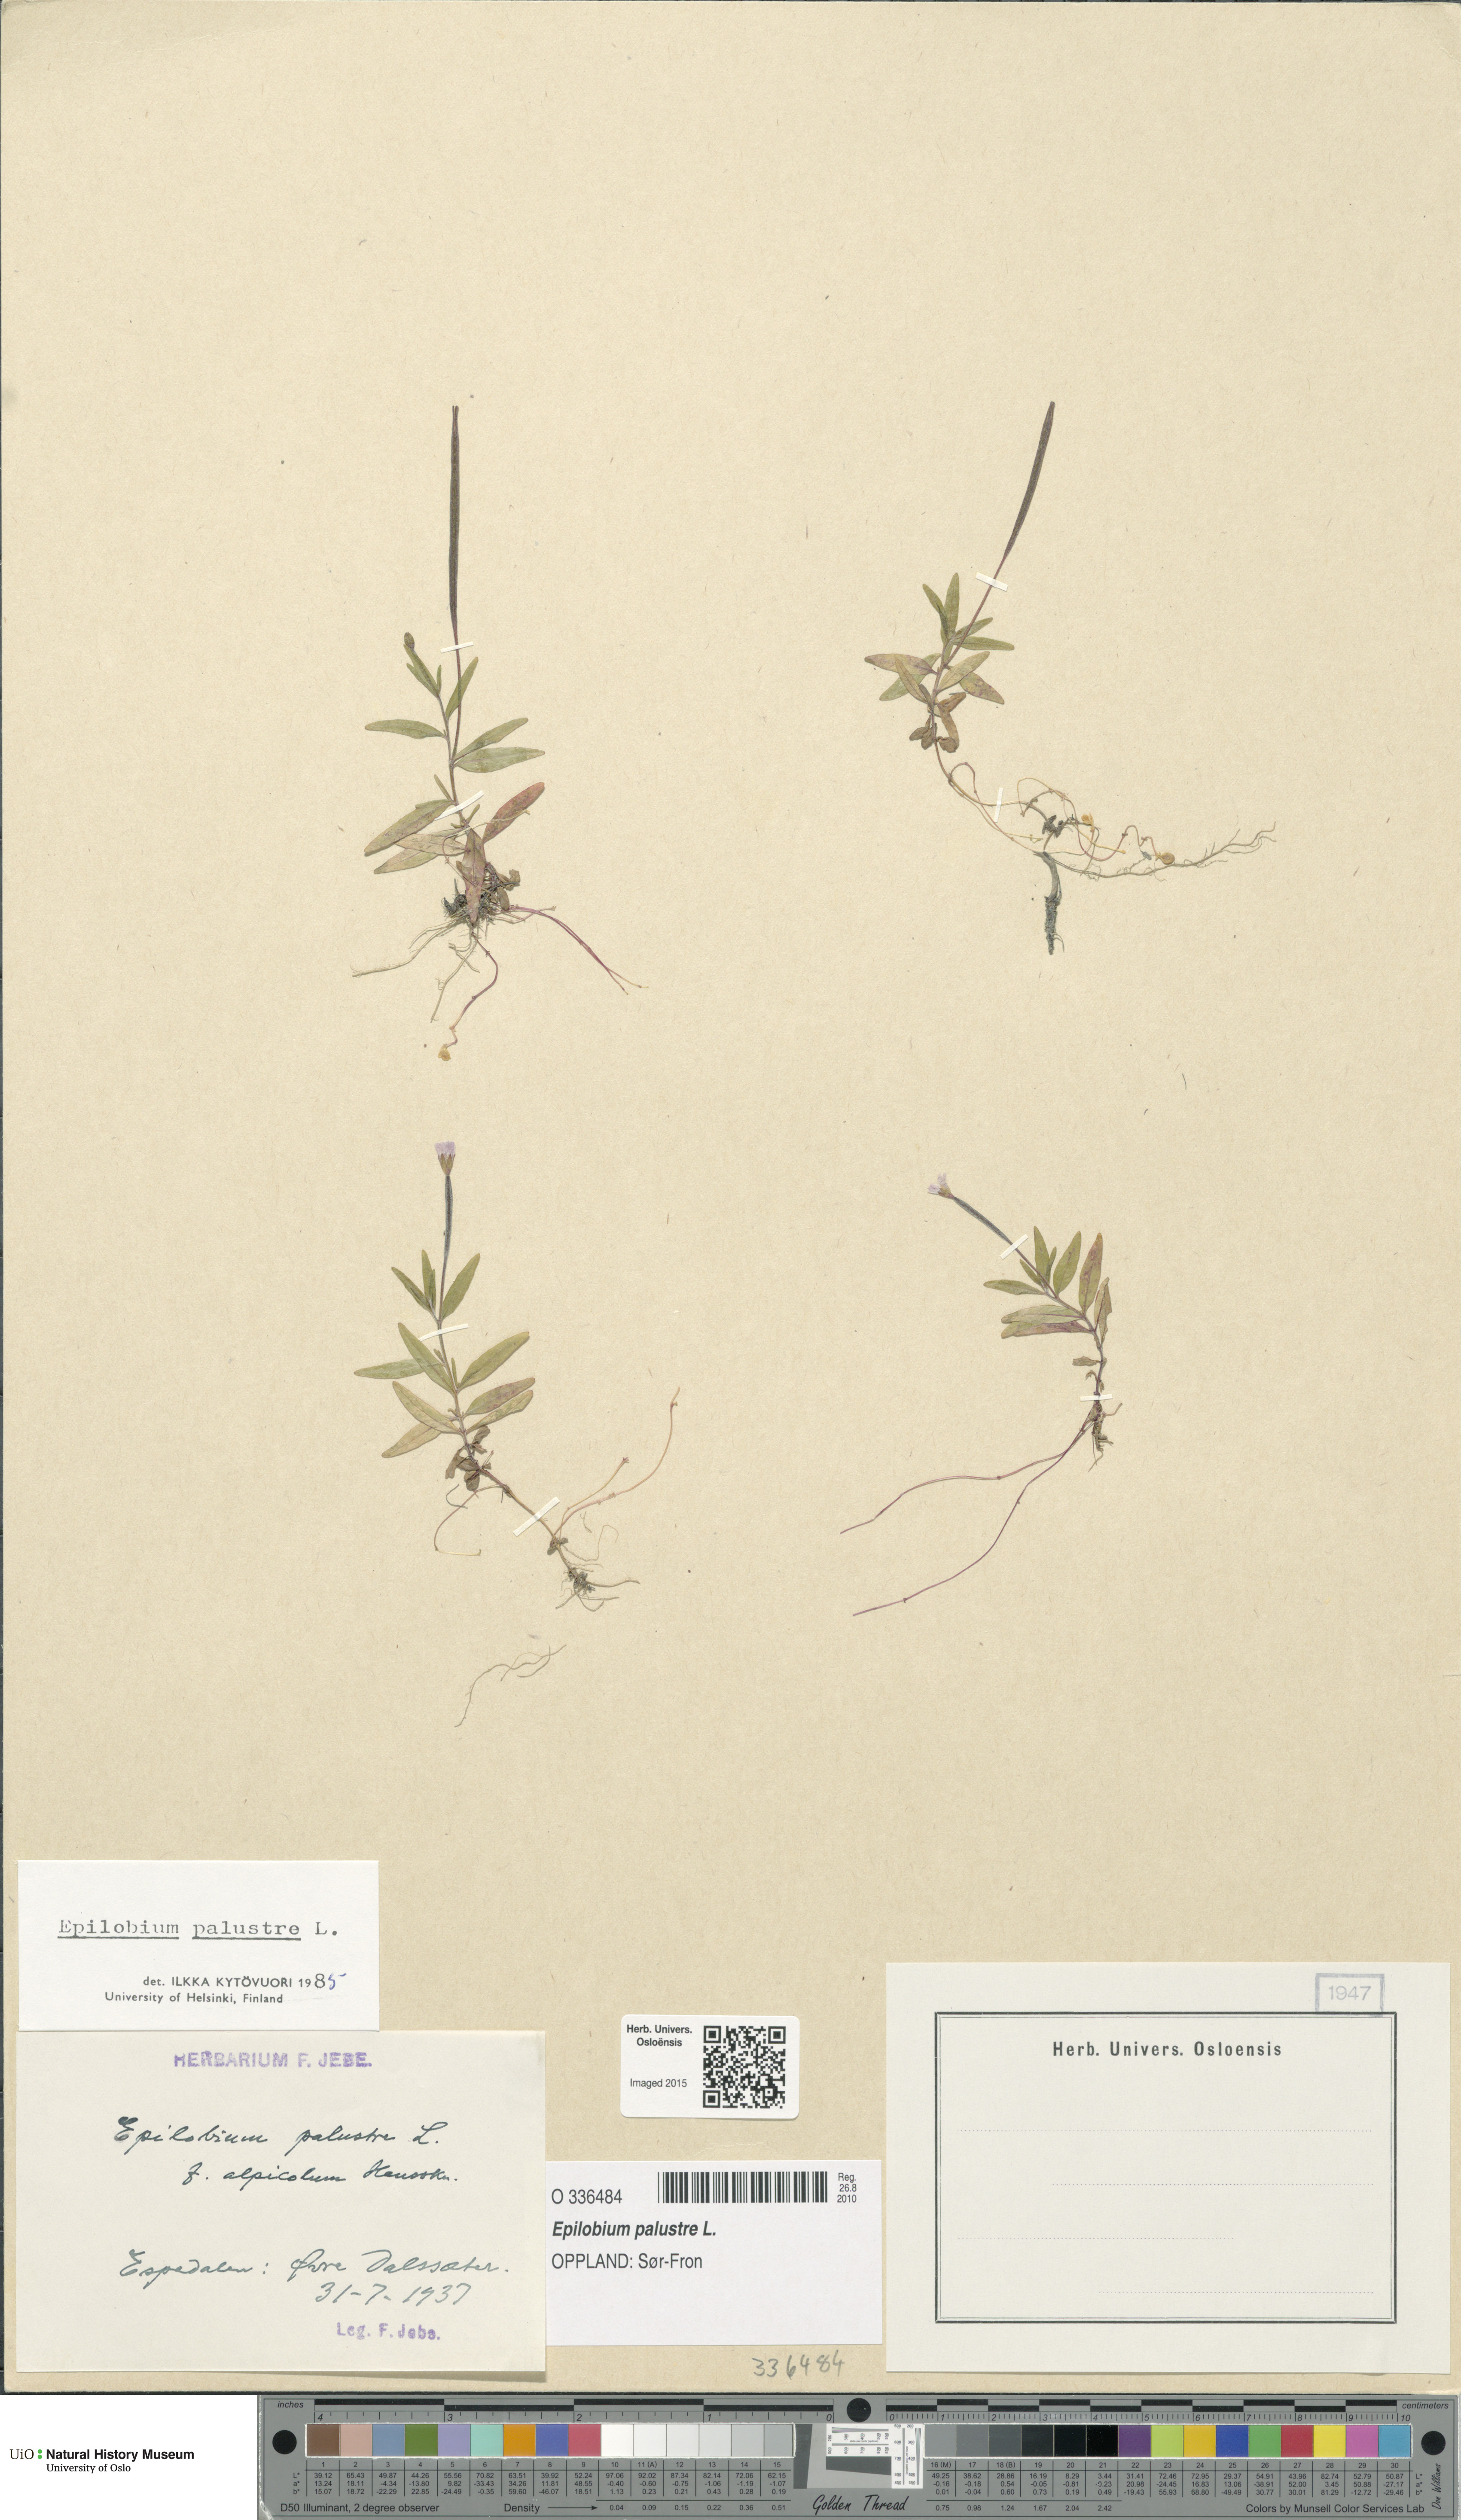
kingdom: Plantae
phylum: Tracheophyta
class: Magnoliopsida
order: Myrtales
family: Onagraceae
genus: Epilobium
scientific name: Epilobium palustre
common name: Marsh willowherb
